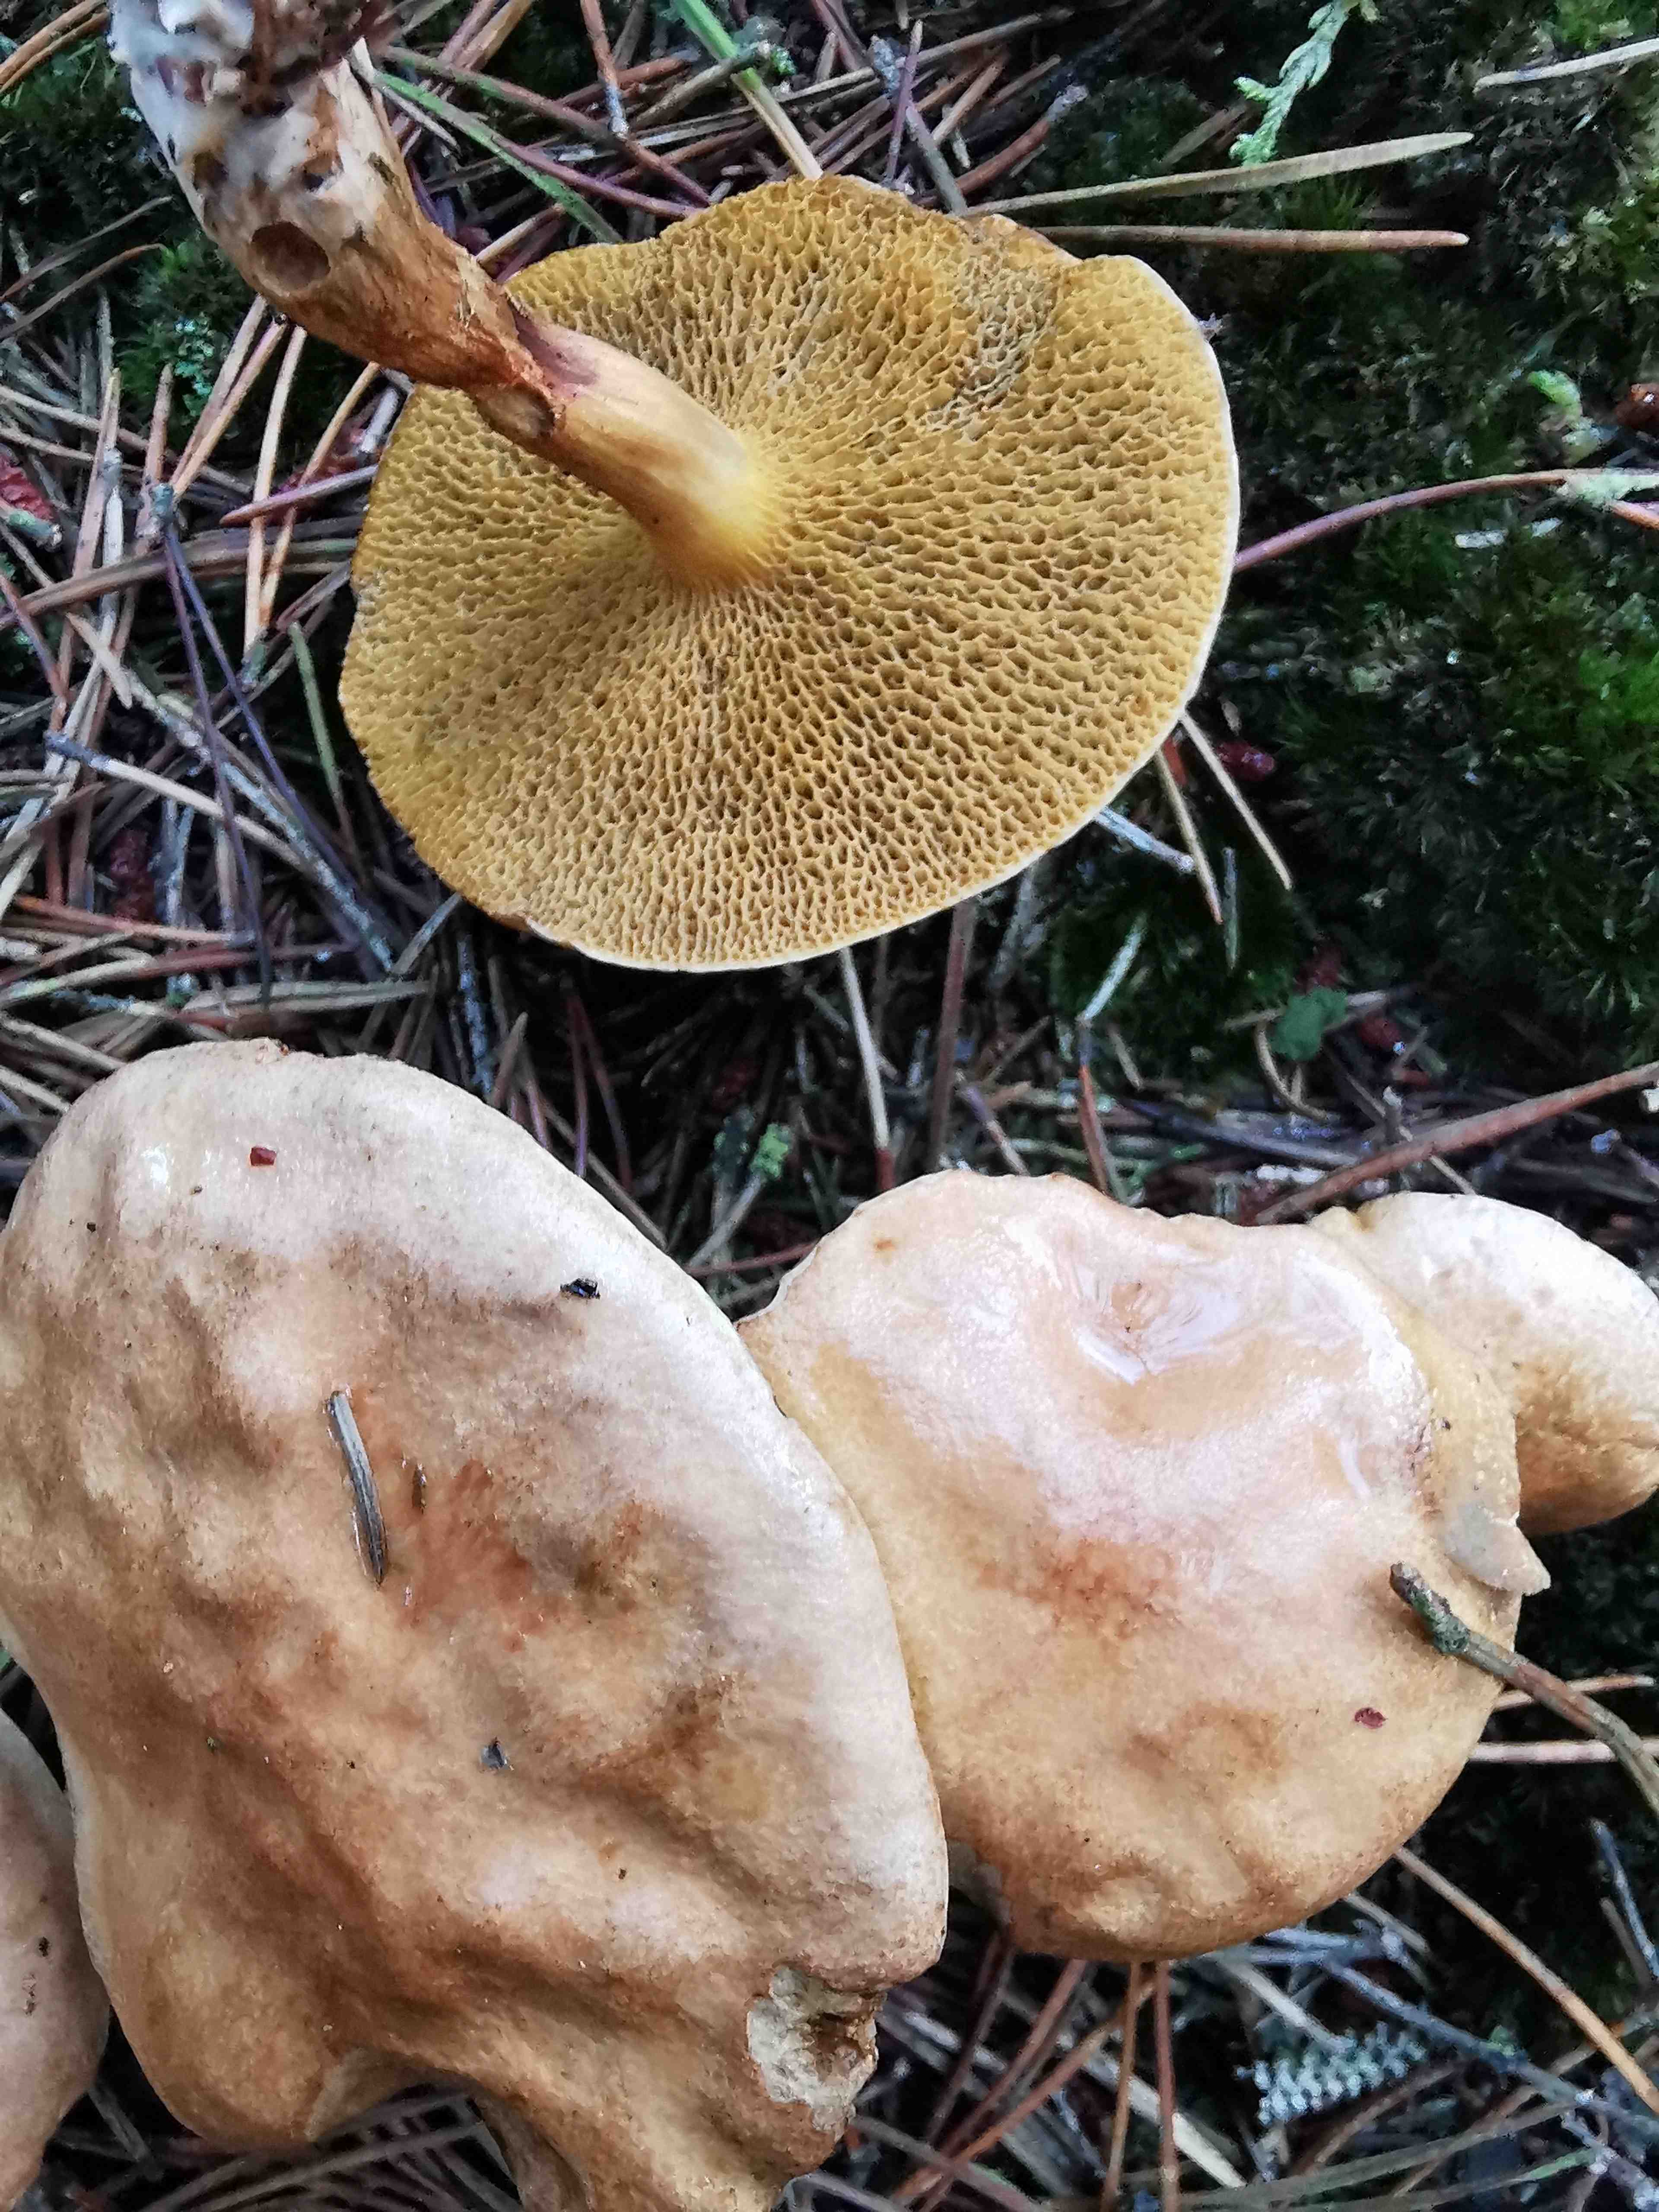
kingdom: Fungi
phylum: Basidiomycota
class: Agaricomycetes
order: Boletales
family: Suillaceae
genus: Suillus
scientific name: Suillus bovinus
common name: grovporet slimrørhat
